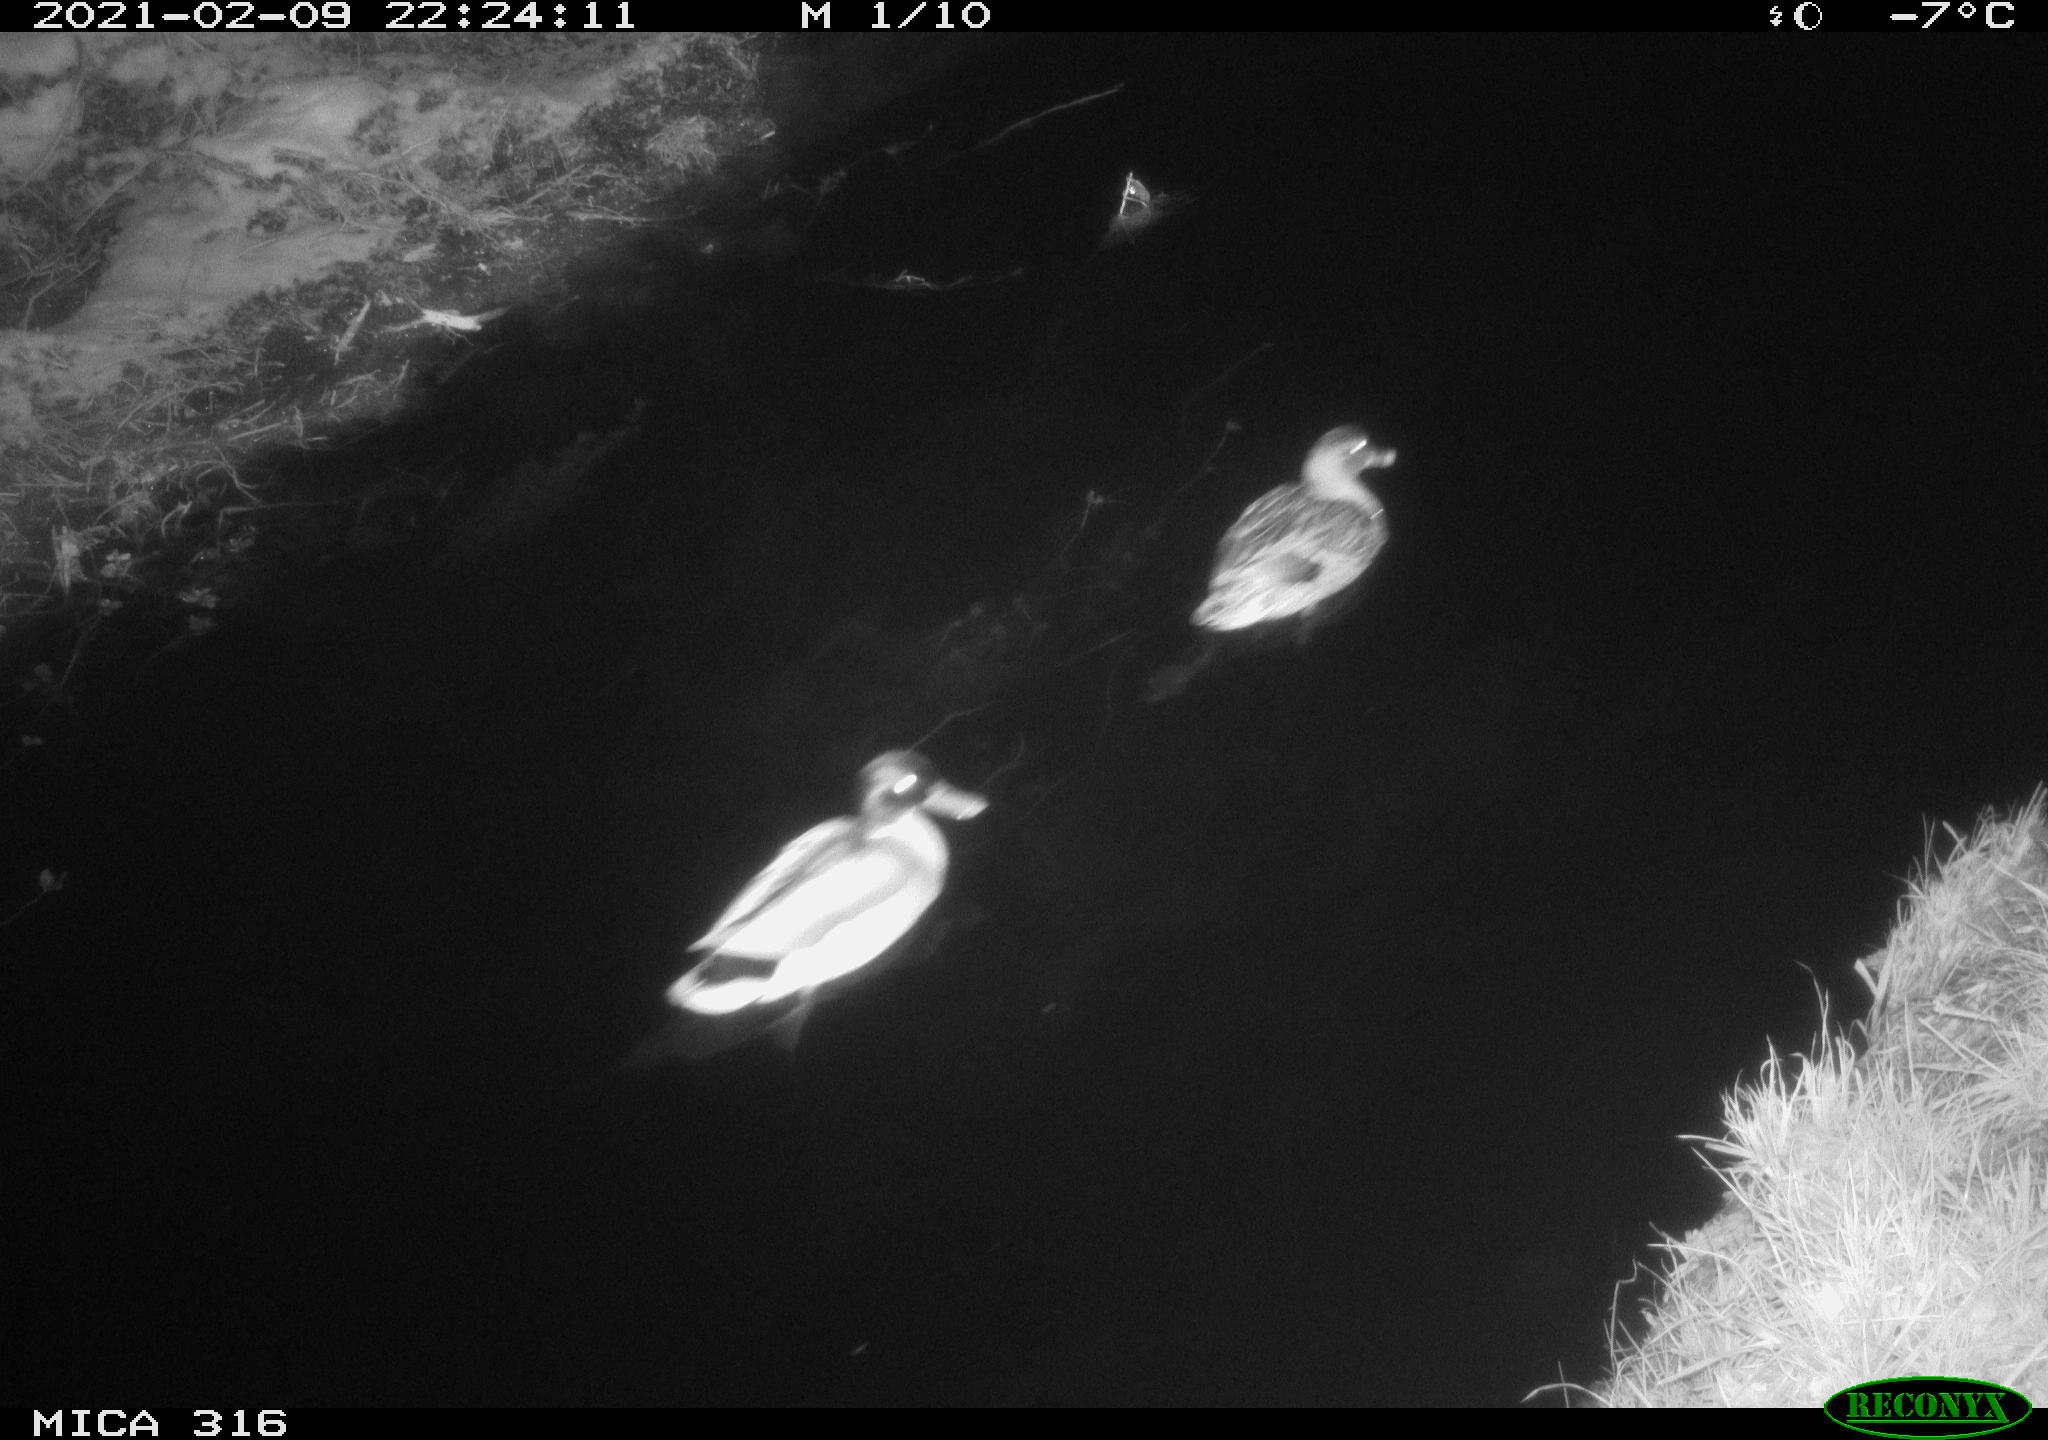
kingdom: Animalia
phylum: Chordata
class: Aves
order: Anseriformes
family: Anatidae
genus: Anas
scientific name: Anas platyrhynchos
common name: Mallard
